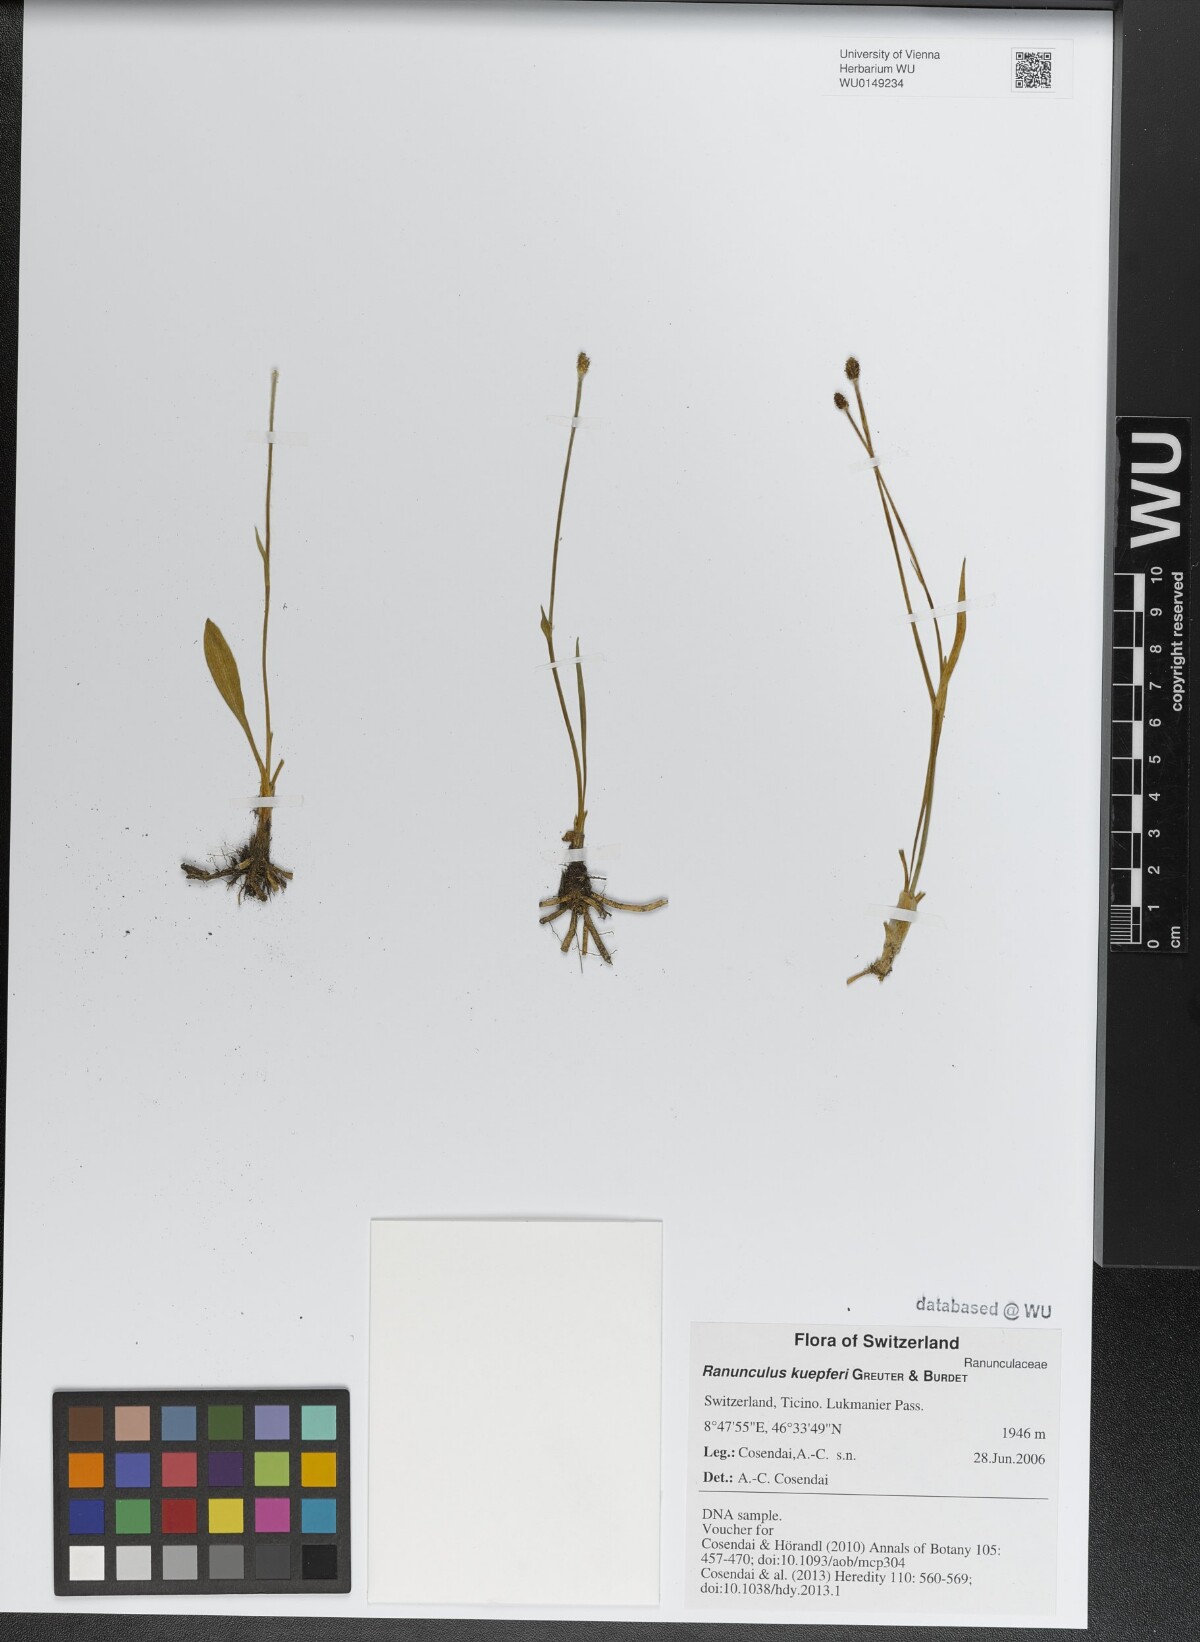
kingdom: Plantae
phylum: Tracheophyta
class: Magnoliopsida
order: Ranunculales
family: Ranunculaceae
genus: Ranunculus
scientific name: Ranunculus kuepferi
